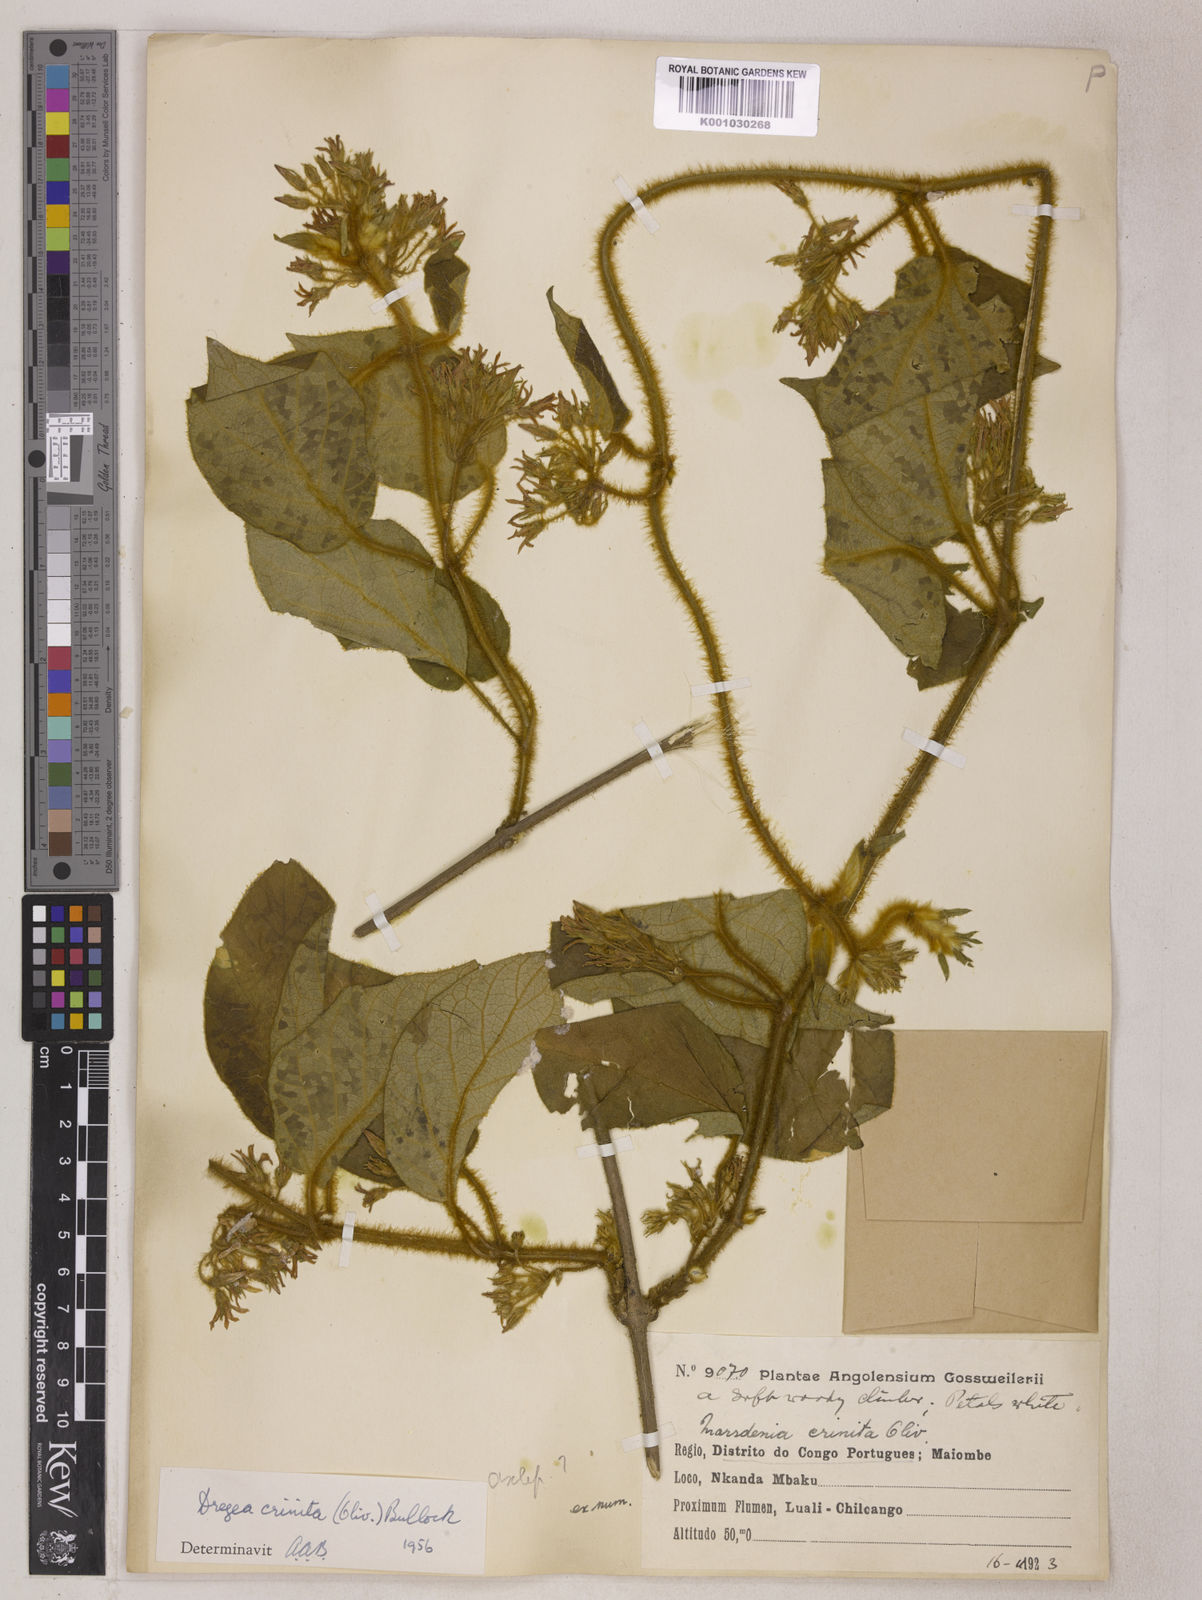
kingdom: Plantae
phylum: Tracheophyta
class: Magnoliopsida
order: Gentianales
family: Apocynaceae
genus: Stephanotis
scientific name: Stephanotis crinita
